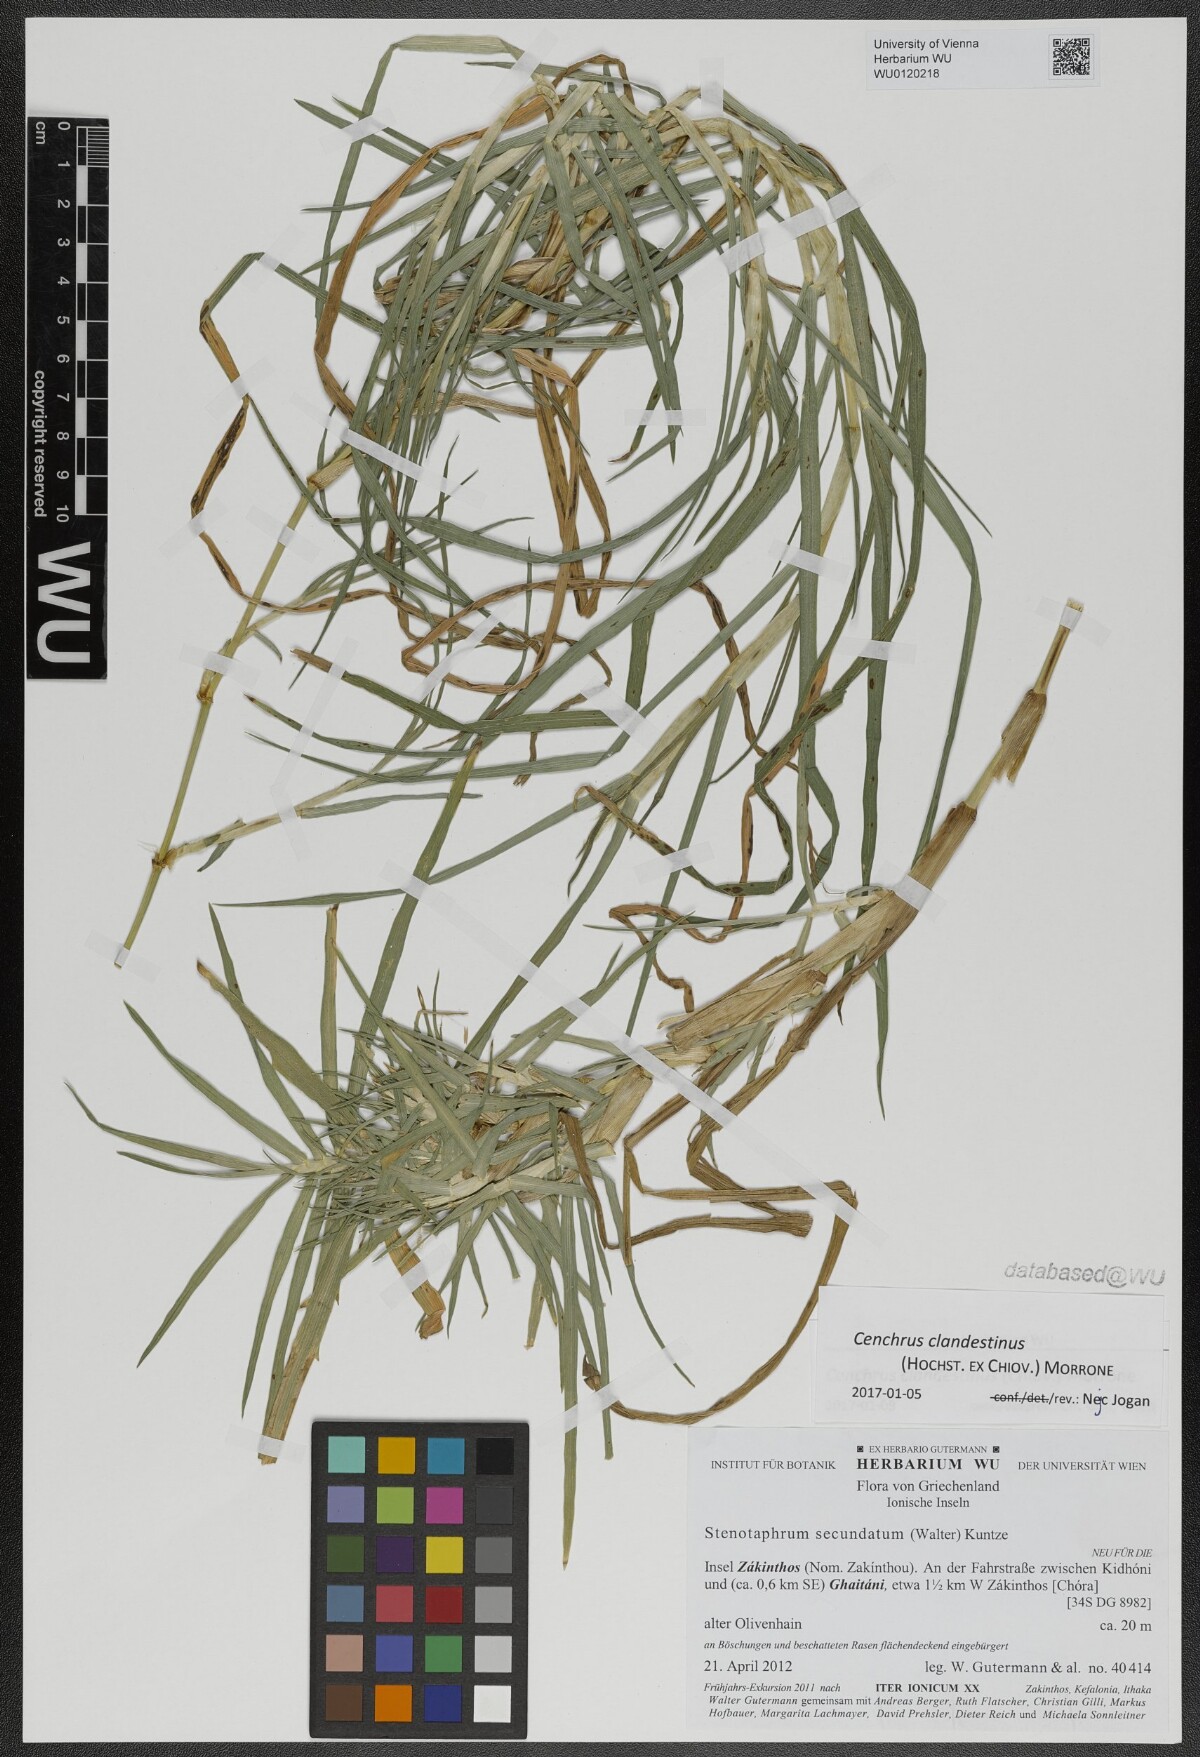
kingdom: Plantae
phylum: Tracheophyta
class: Liliopsida
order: Poales
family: Poaceae
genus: Cenchrus
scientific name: Cenchrus clandestinus
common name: Kikuyugrass
